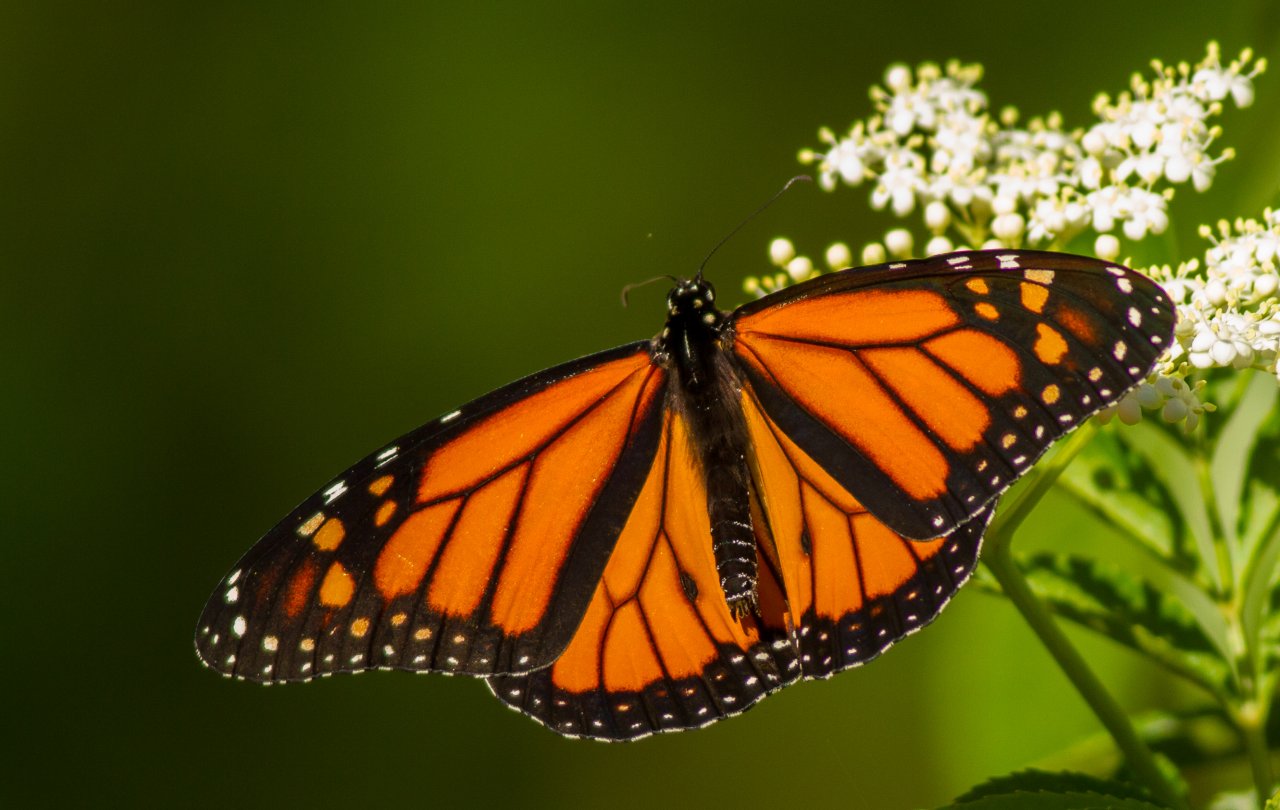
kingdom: Animalia
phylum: Arthropoda
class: Insecta
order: Lepidoptera
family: Nymphalidae
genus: Danaus
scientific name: Danaus plexippus
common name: Monarch
